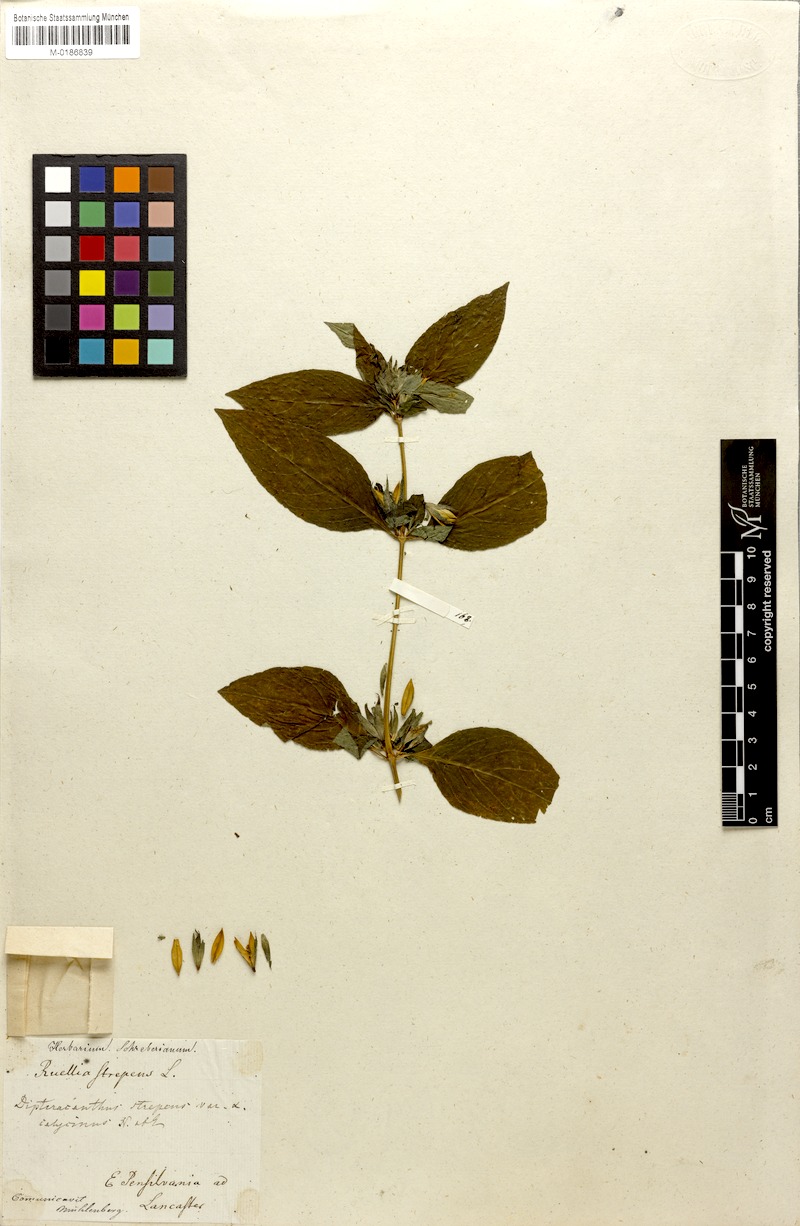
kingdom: Plantae
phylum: Tracheophyta
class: Magnoliopsida
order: Lamiales
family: Acanthaceae
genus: Ruellia
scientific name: Ruellia strepens
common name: Limestone wild petunia
